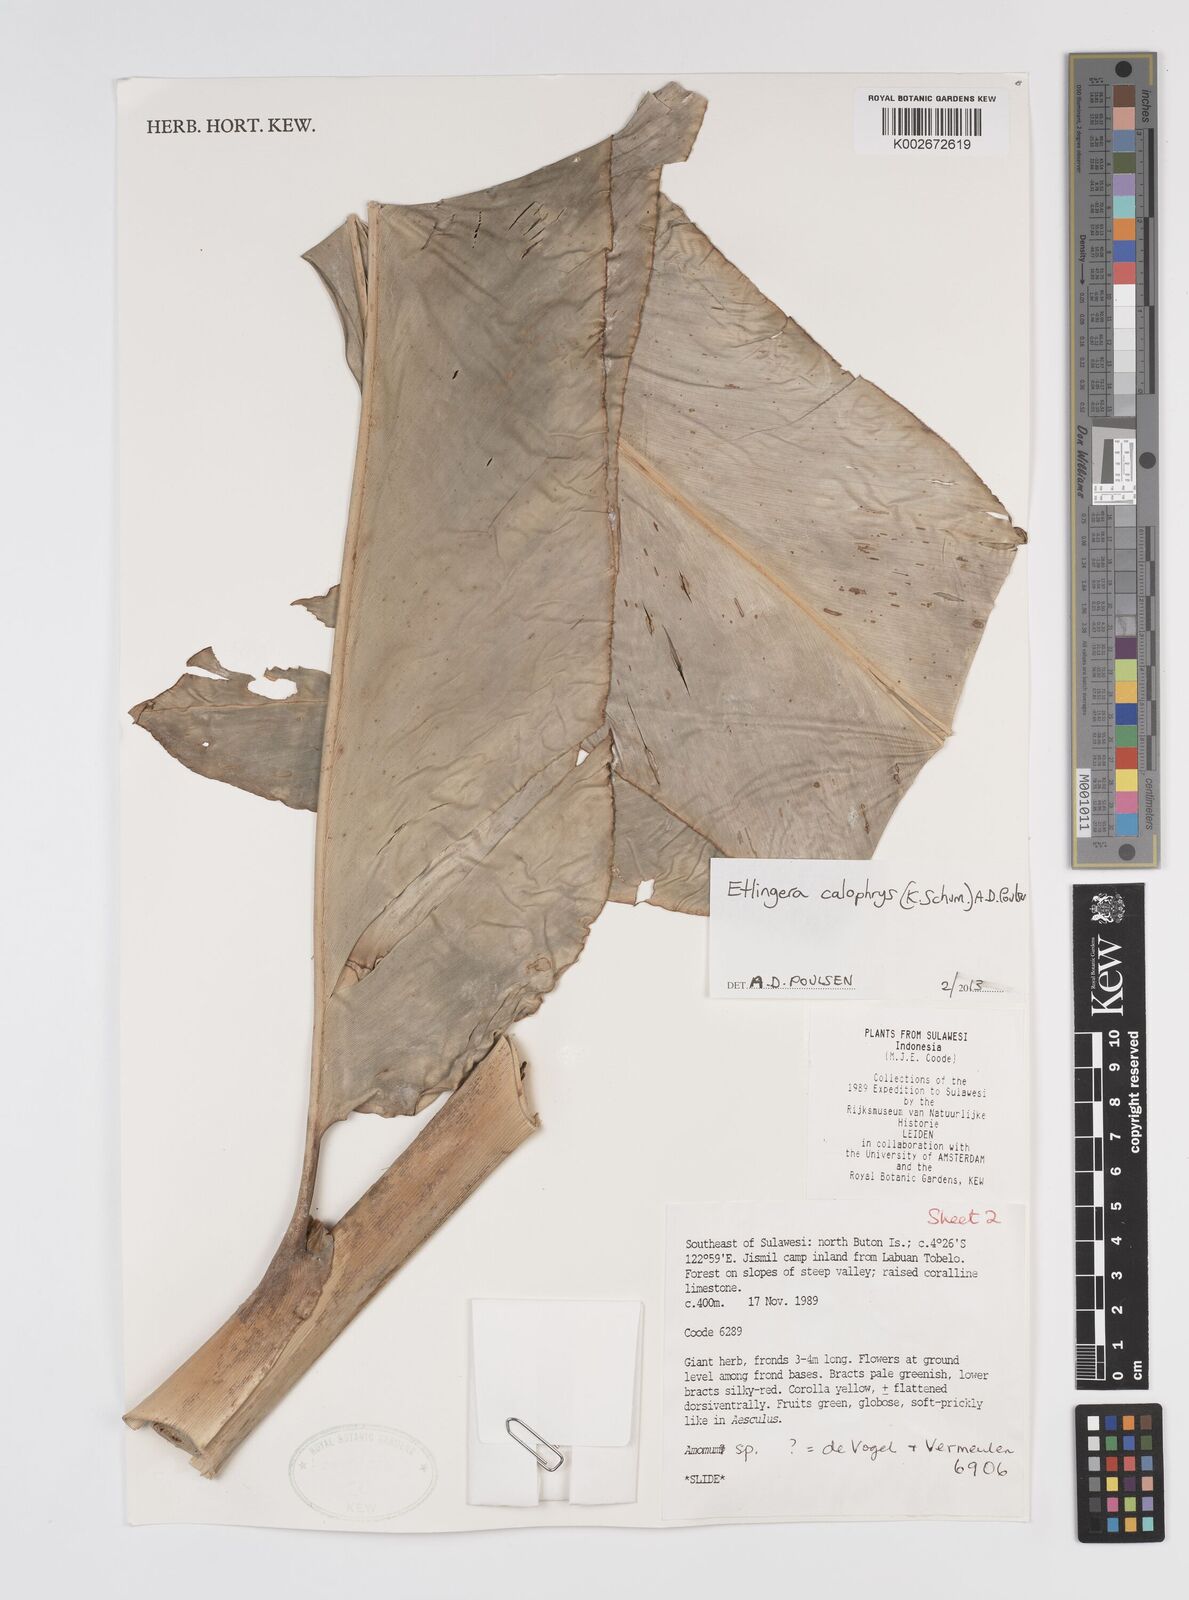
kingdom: Plantae
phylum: Tracheophyta
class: Liliopsida
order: Zingiberales
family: Zingiberaceae
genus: Etlingera
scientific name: Etlingera calophrys
